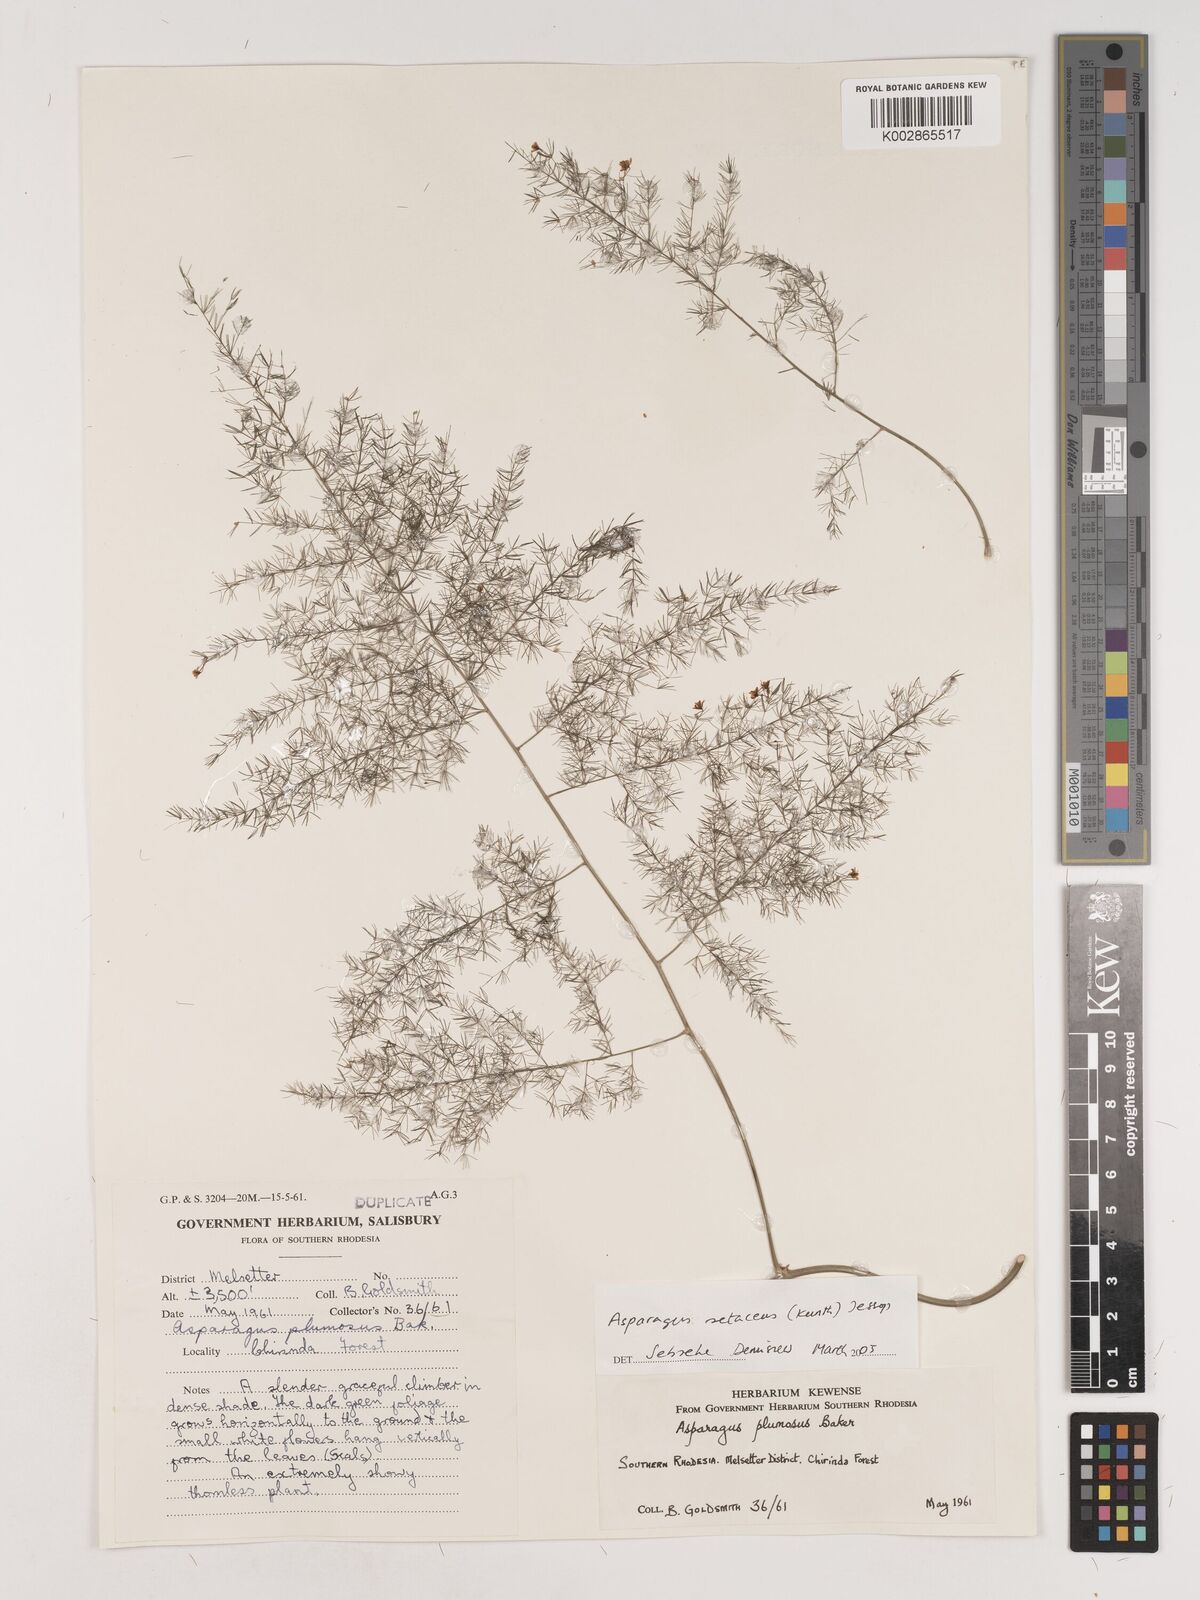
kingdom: Plantae
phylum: Tracheophyta
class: Liliopsida
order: Asparagales
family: Asparagaceae
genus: Asparagus
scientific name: Asparagus setaceus
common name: Common asparagus fern
